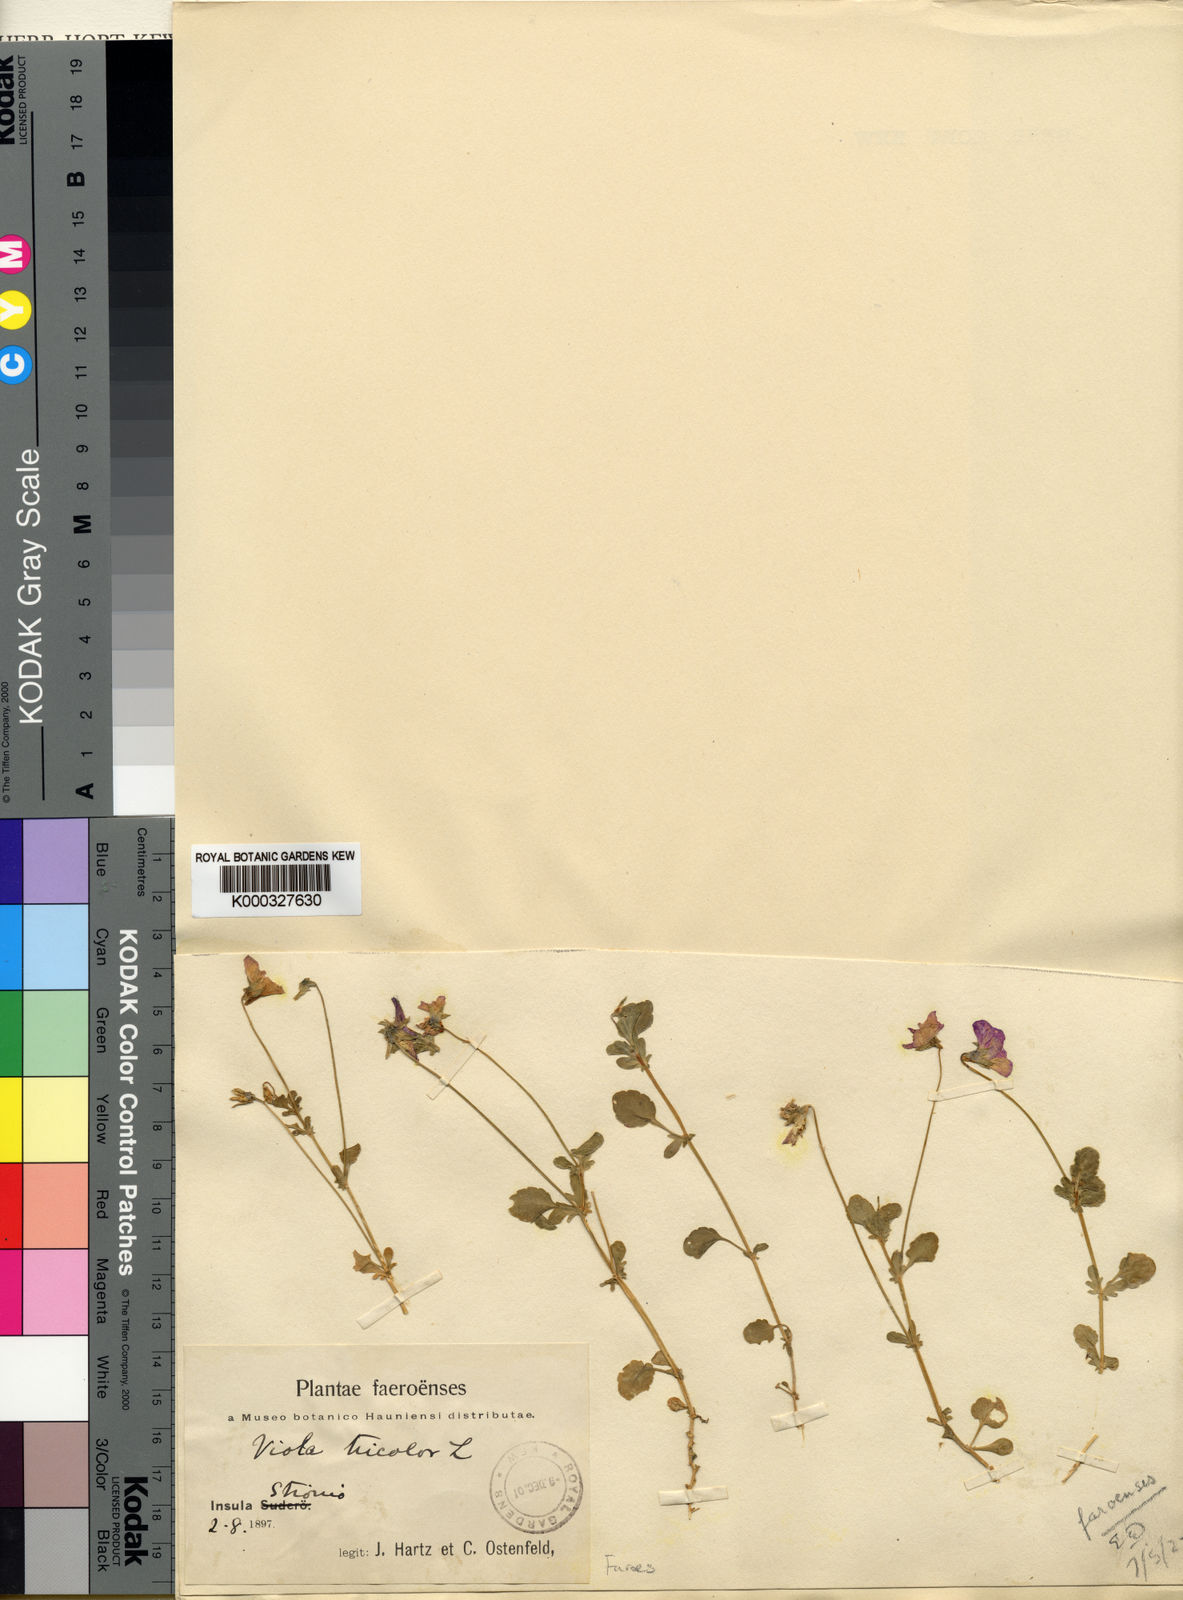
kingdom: Plantae
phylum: Tracheophyta
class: Magnoliopsida
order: Malpighiales
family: Violaceae
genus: Viola
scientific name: Viola tricolor
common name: Pansy
